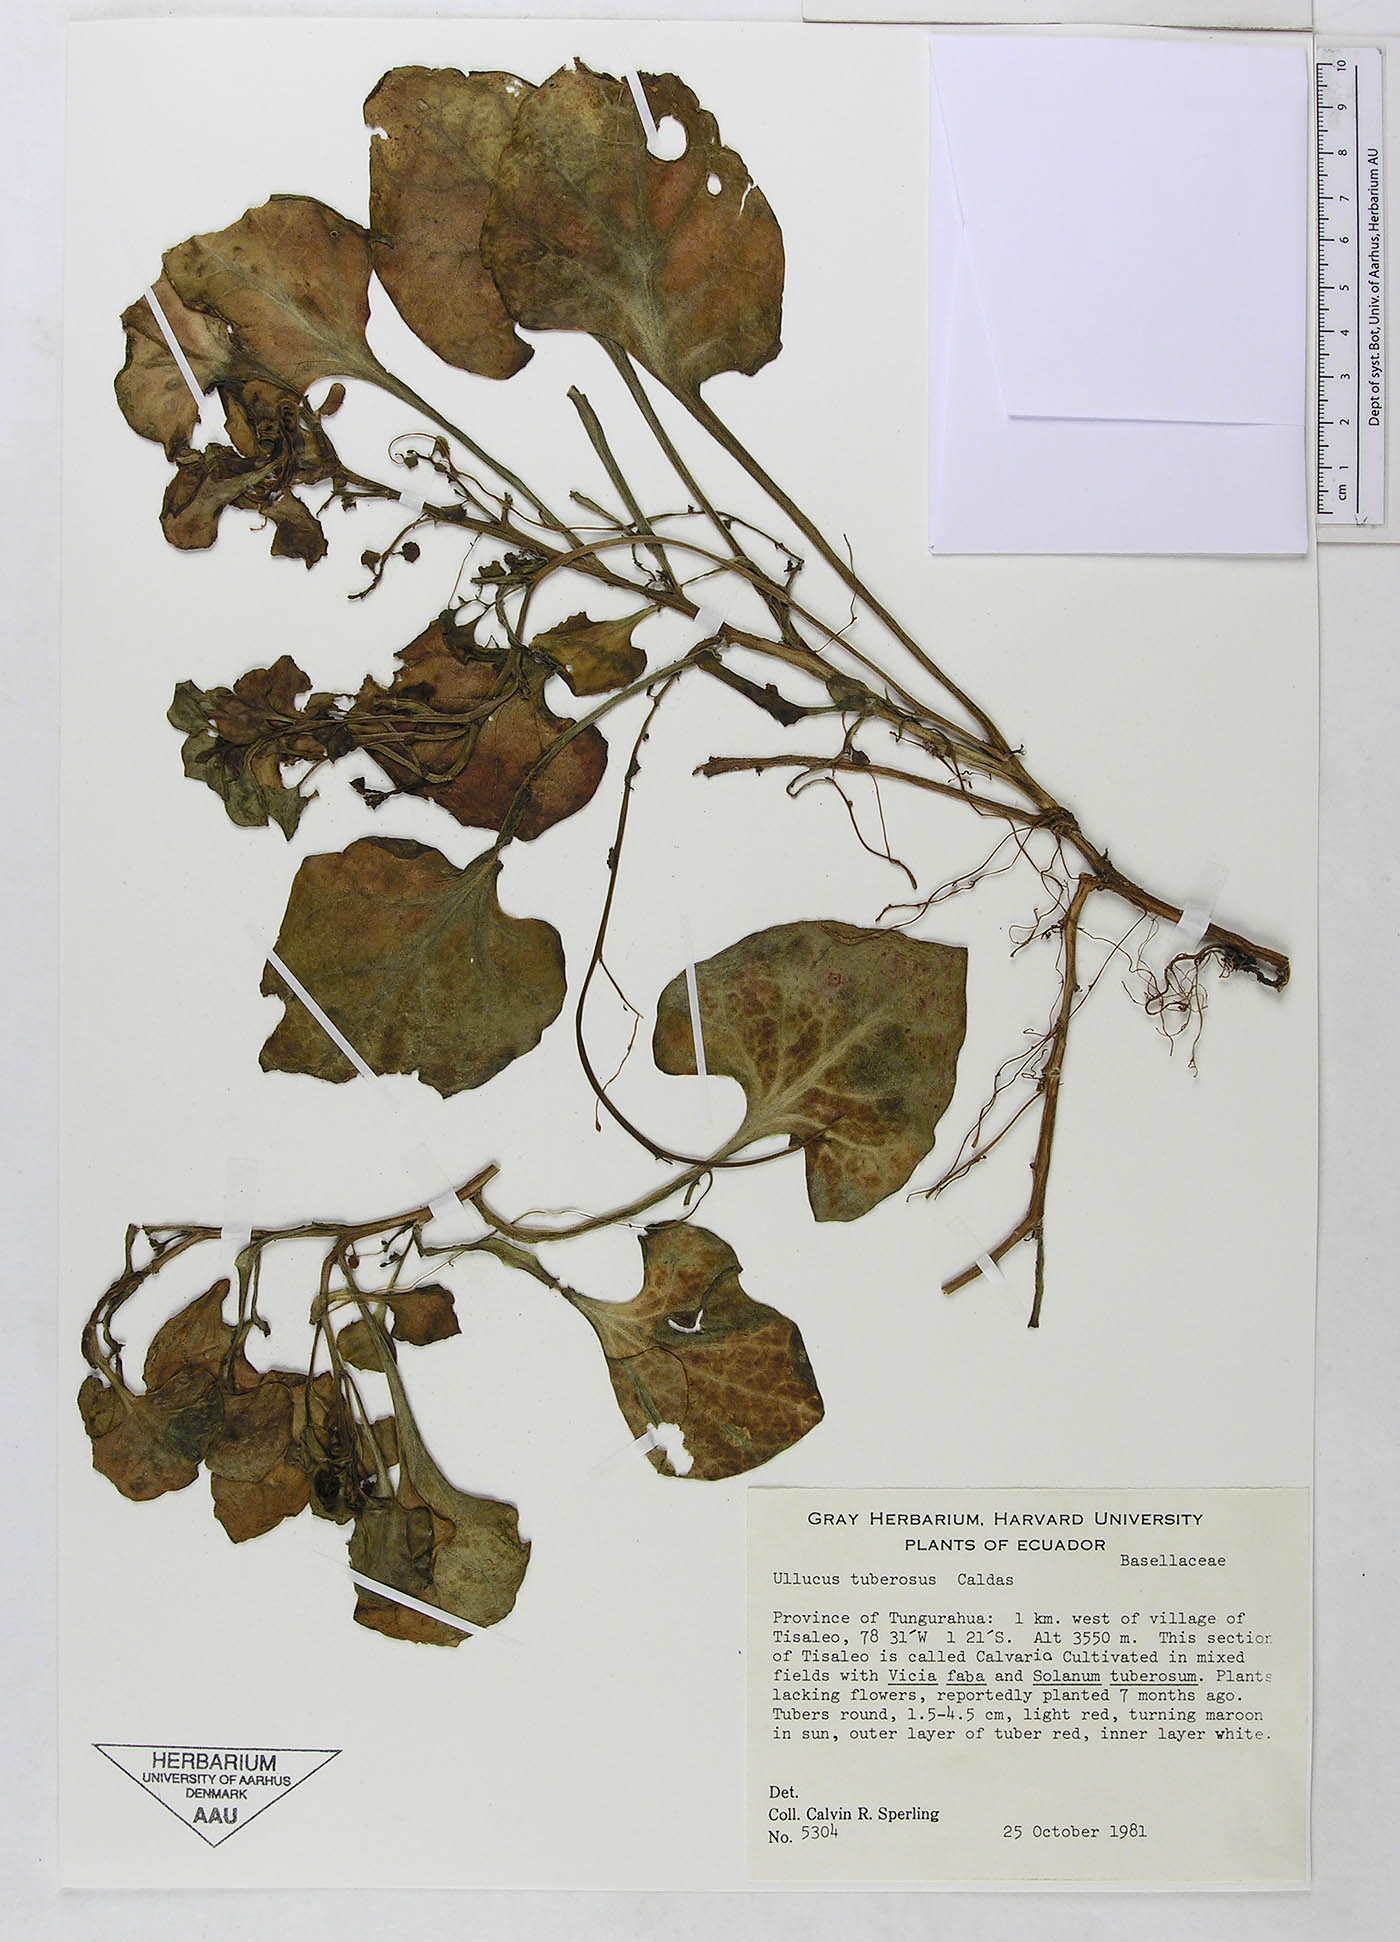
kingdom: Plantae
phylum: Tracheophyta
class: Magnoliopsida
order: Caryophyllales
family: Basellaceae
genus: Ullucus
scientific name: Ullucus tuberosus
